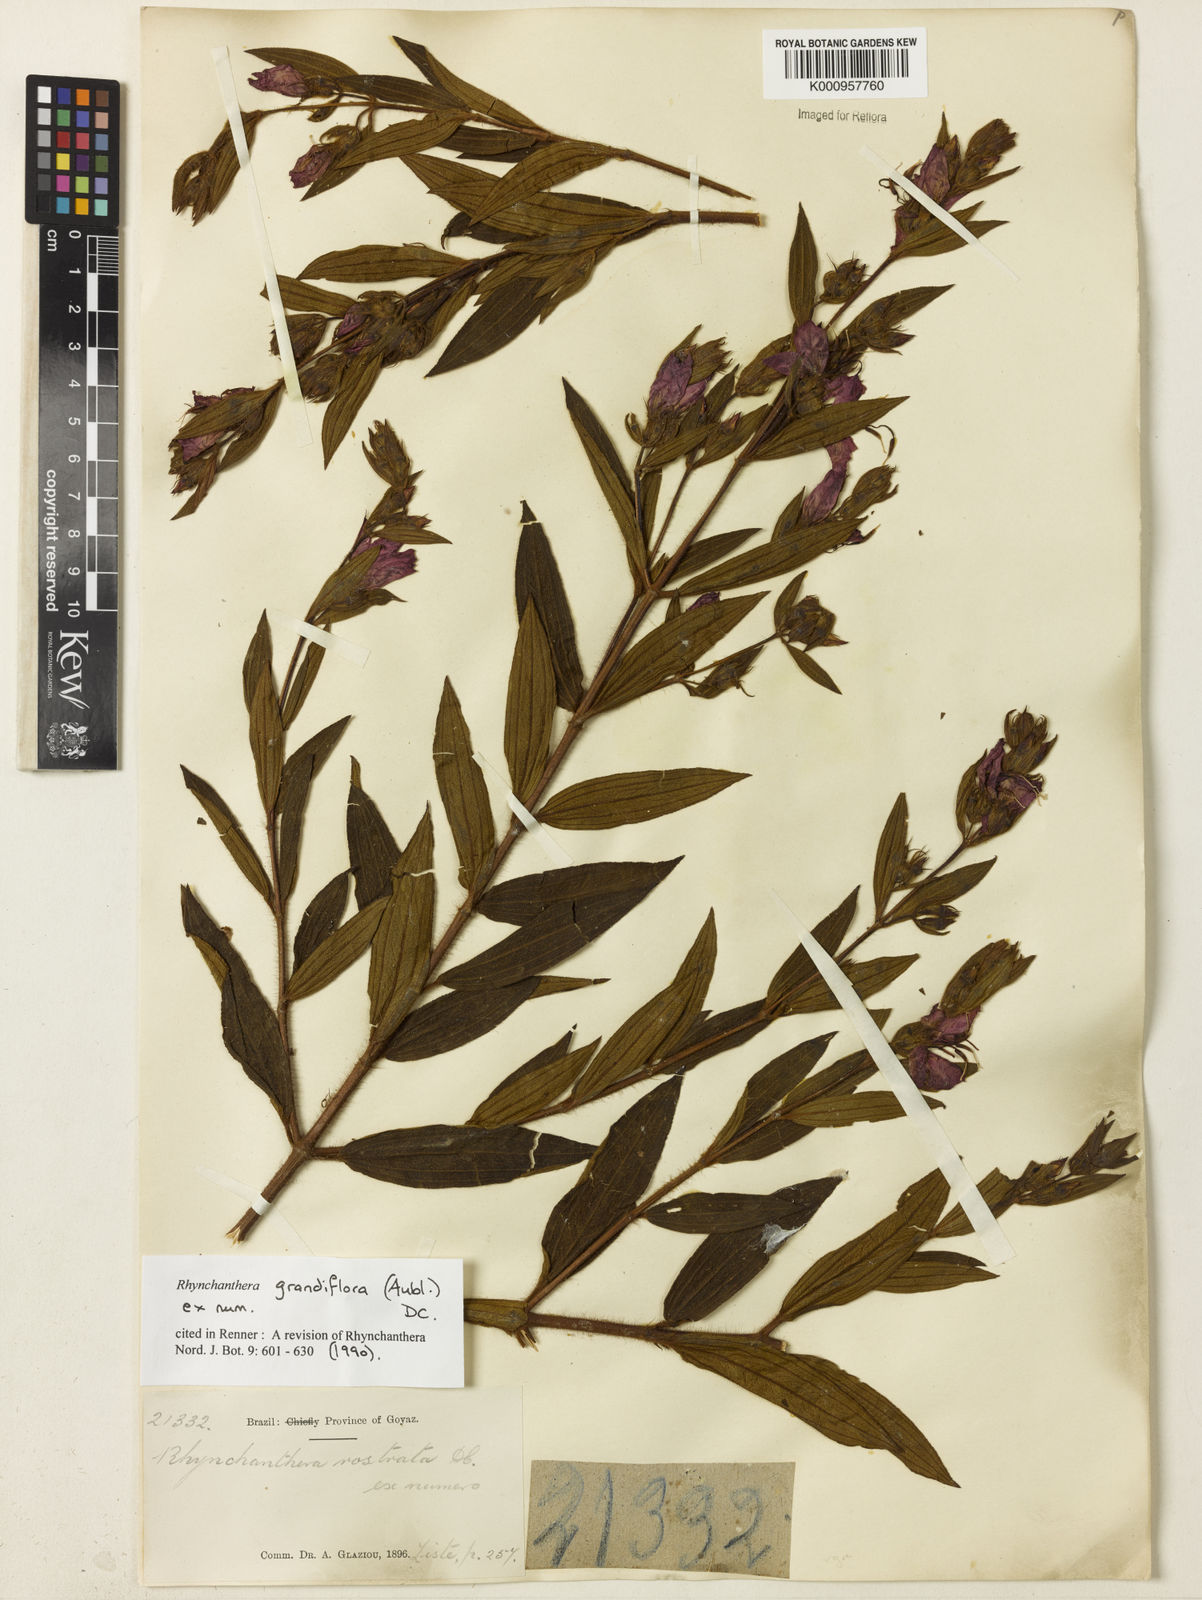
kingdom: Plantae
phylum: Tracheophyta
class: Magnoliopsida
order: Myrtales
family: Melastomataceae
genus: Rhynchanthera
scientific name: Rhynchanthera grandiflora
